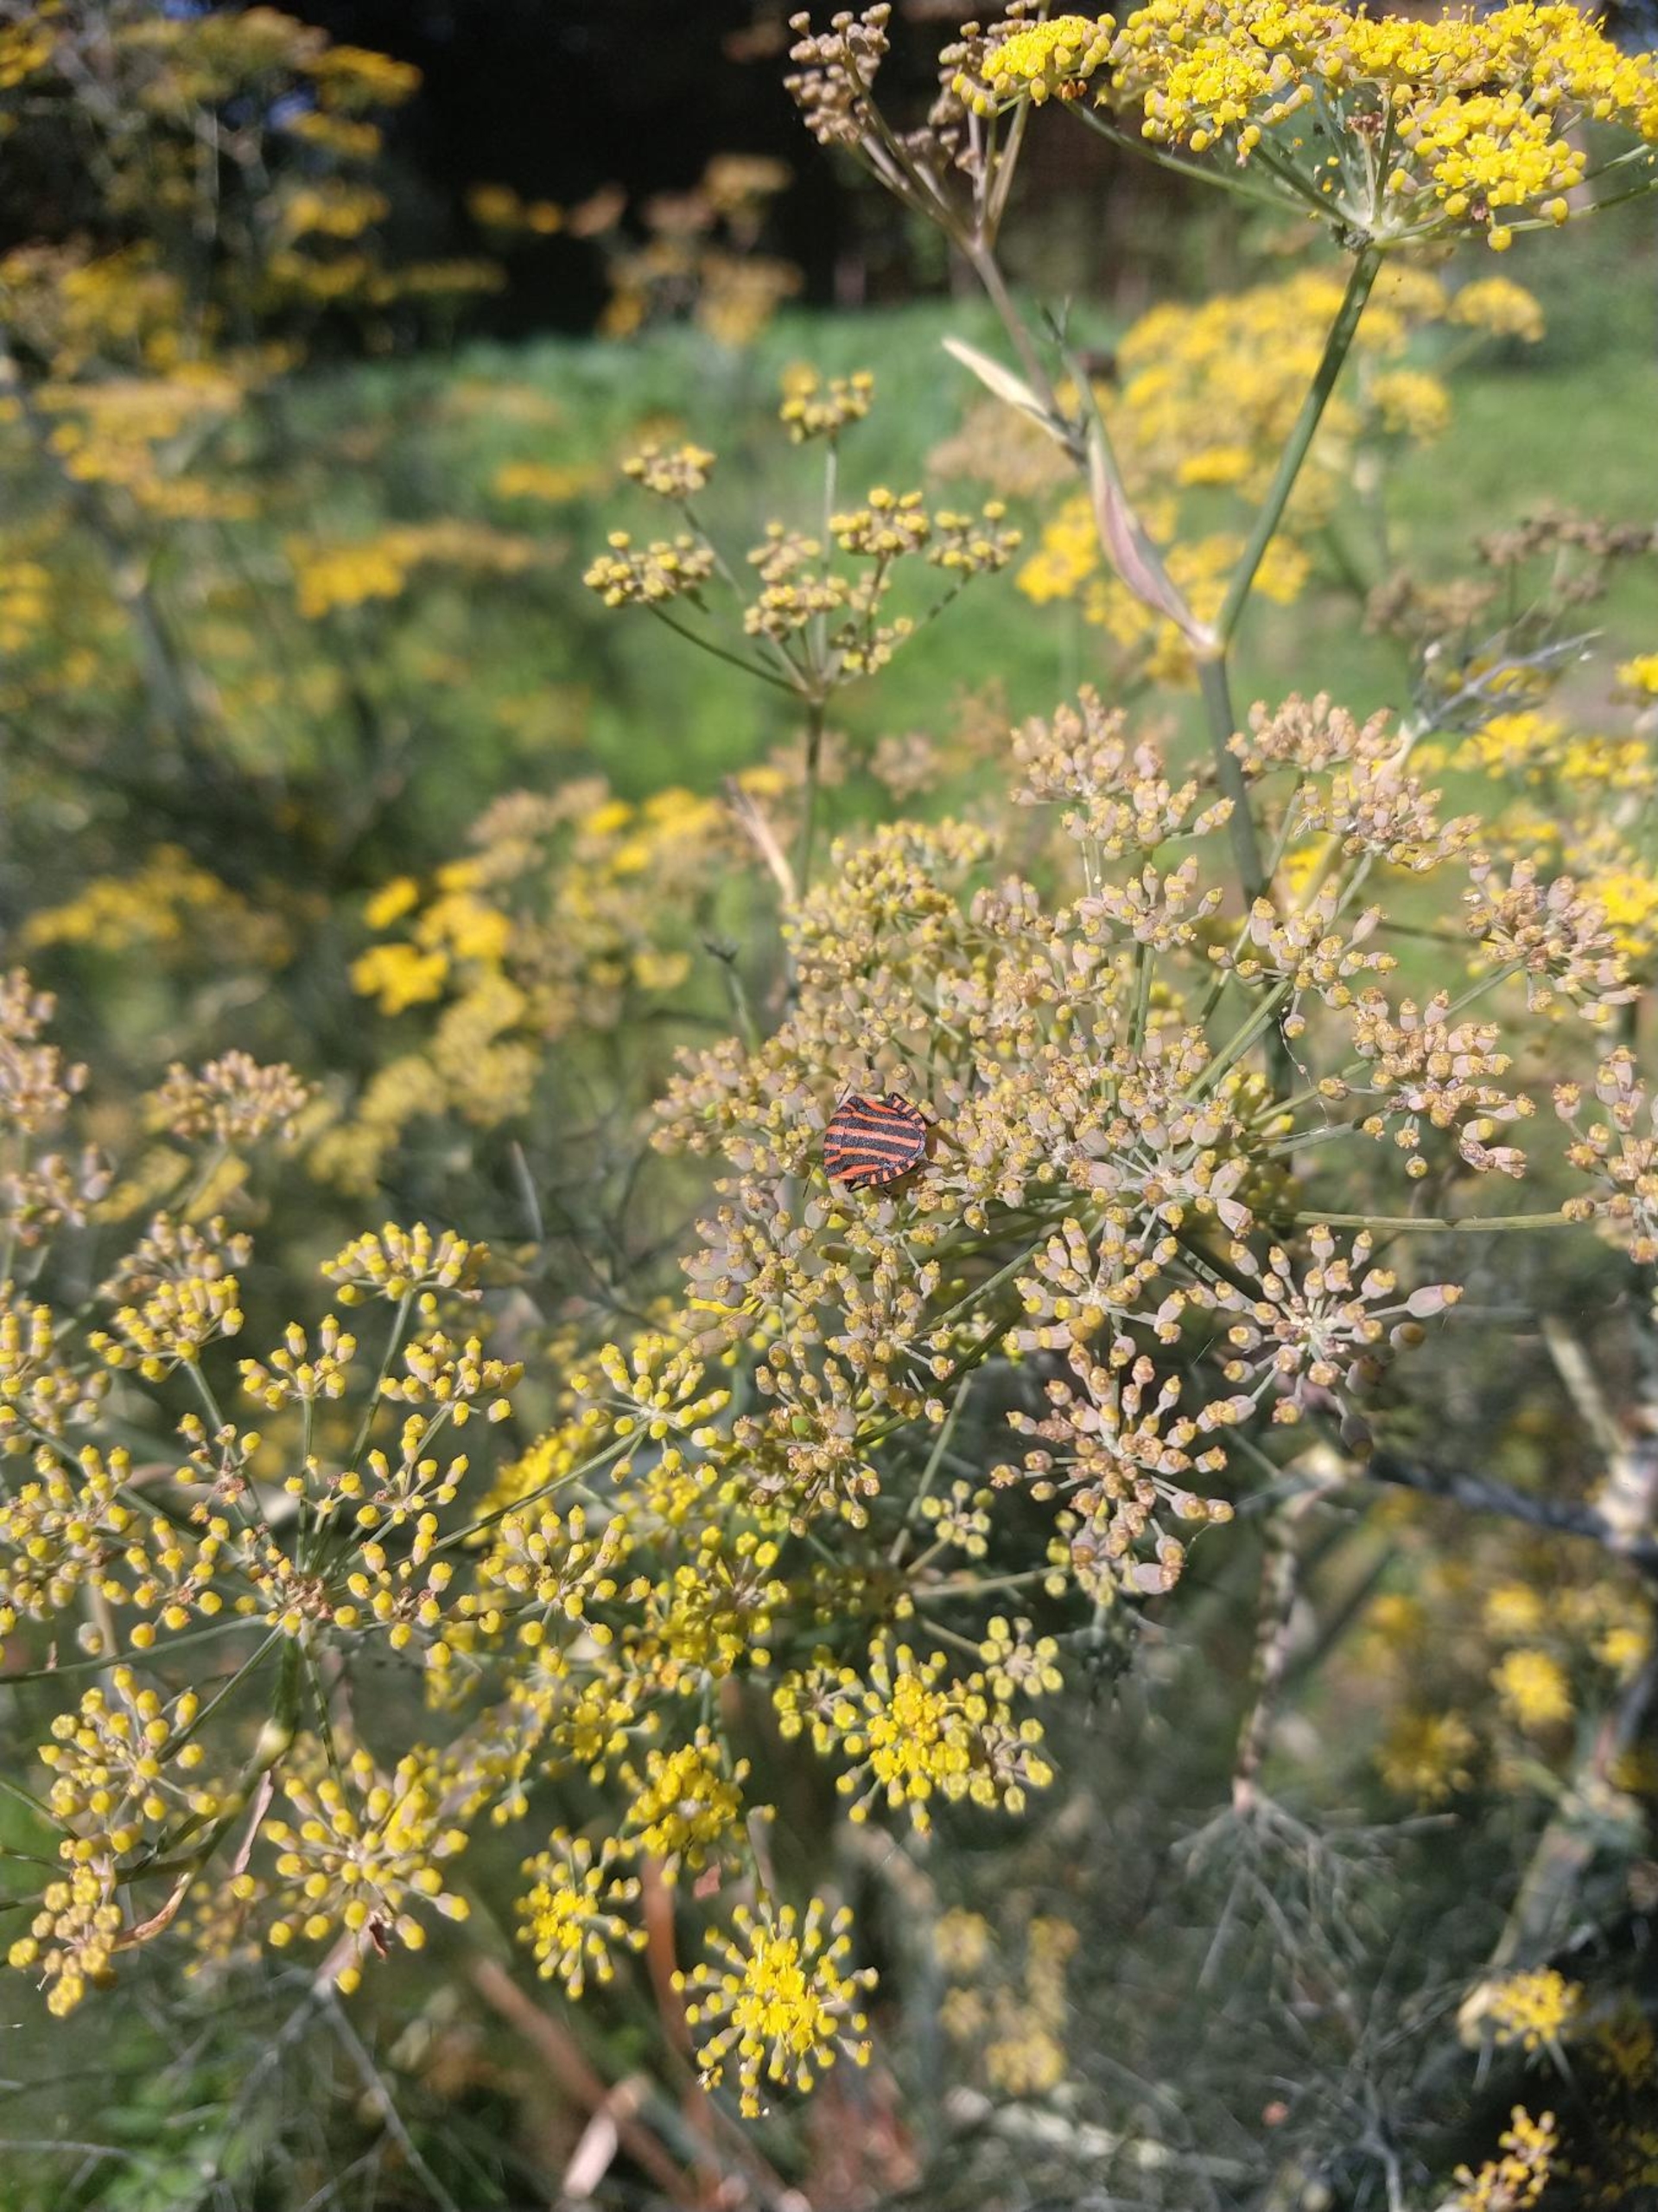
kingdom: Animalia
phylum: Arthropoda
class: Insecta
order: Hemiptera
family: Pentatomidae
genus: Graphosoma
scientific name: Graphosoma italicum
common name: Stribetæge
